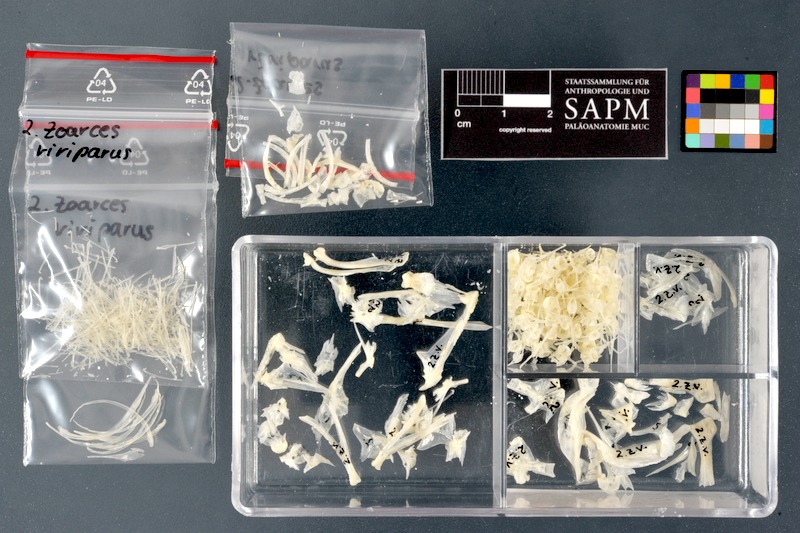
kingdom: Animalia
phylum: Chordata
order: Perciformes
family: Zoarcidae
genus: Zoarces
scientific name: Zoarces viviparus
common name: Viviparous blenny
